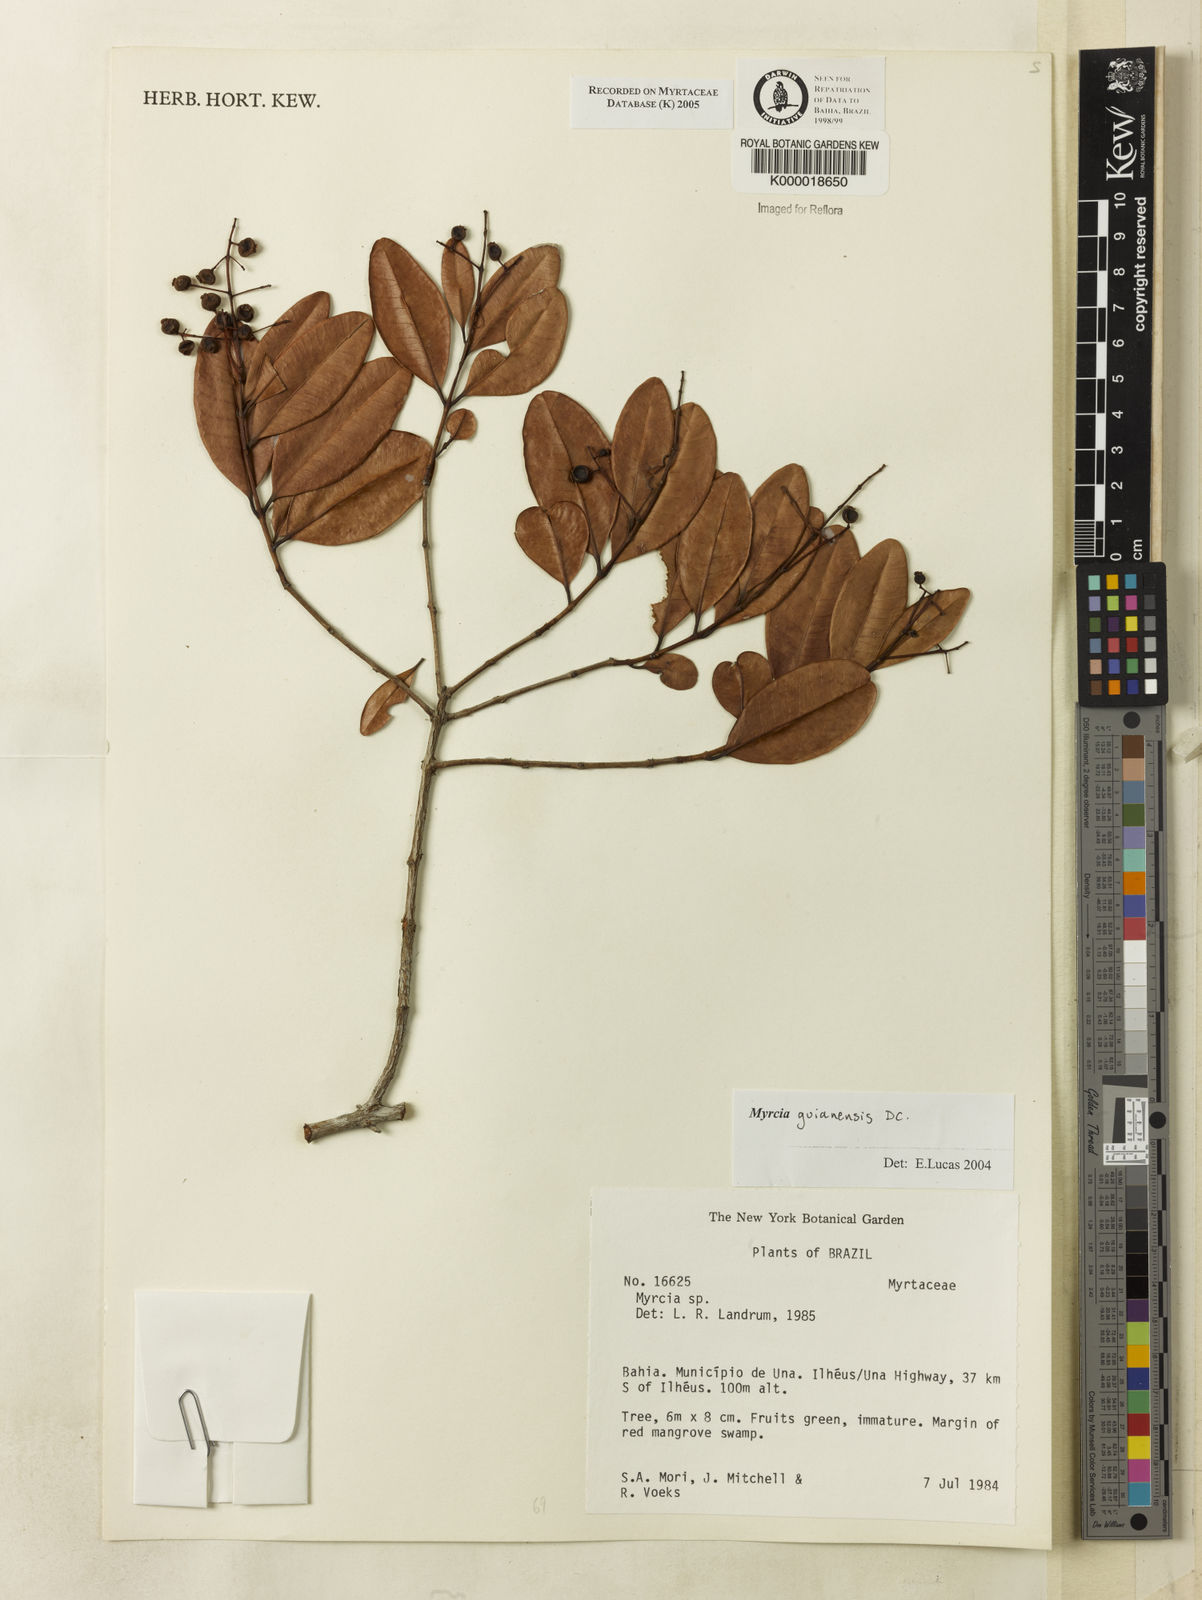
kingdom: Plantae
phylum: Tracheophyta
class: Magnoliopsida
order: Myrtales
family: Myrtaceae
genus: Myrcia
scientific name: Myrcia guianensis
